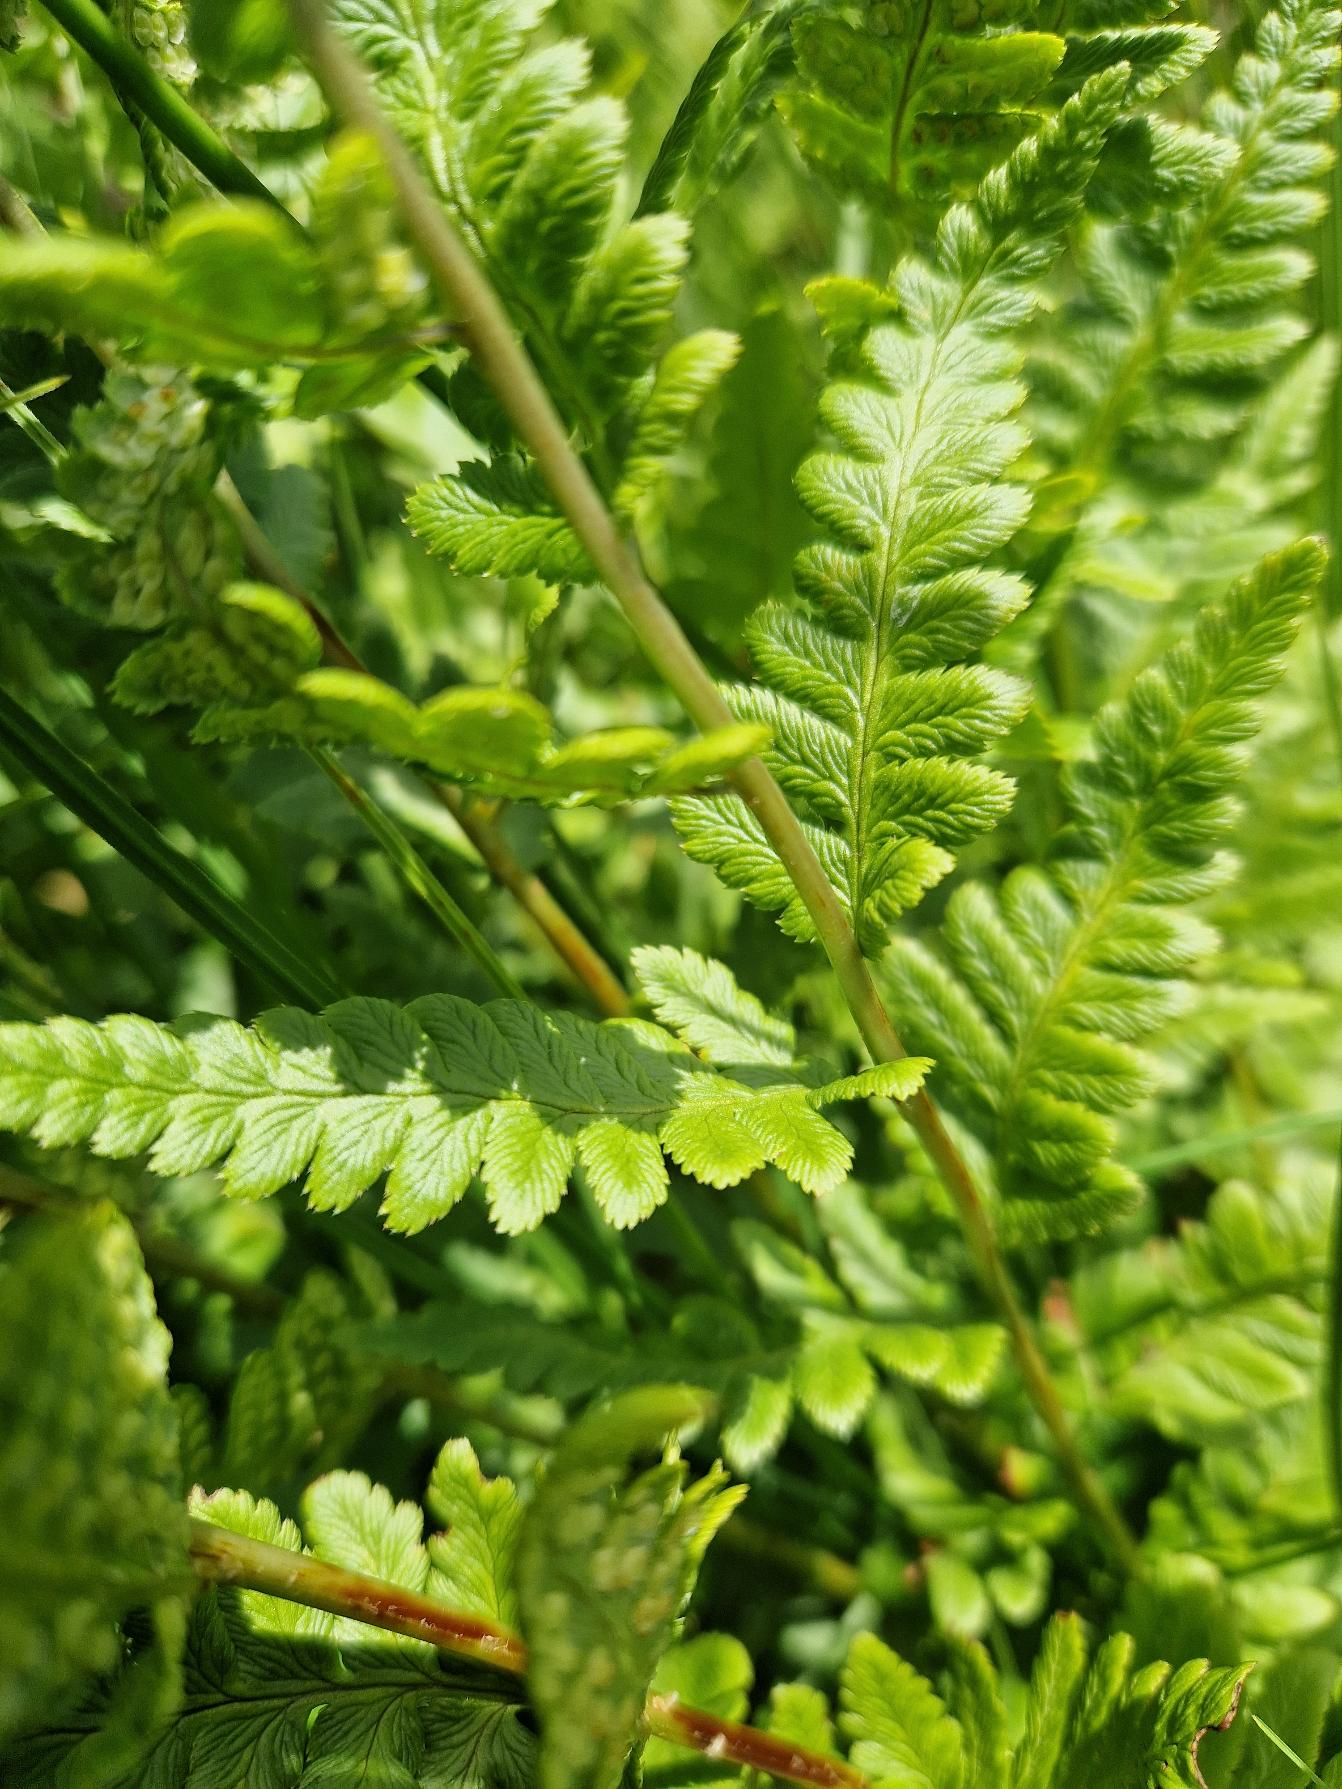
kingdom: Plantae
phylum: Tracheophyta
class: Polypodiopsida
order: Polypodiales
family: Dryopteridaceae
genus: Dryopteris
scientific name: Dryopteris cristata
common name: Butfinnet mangeløv
